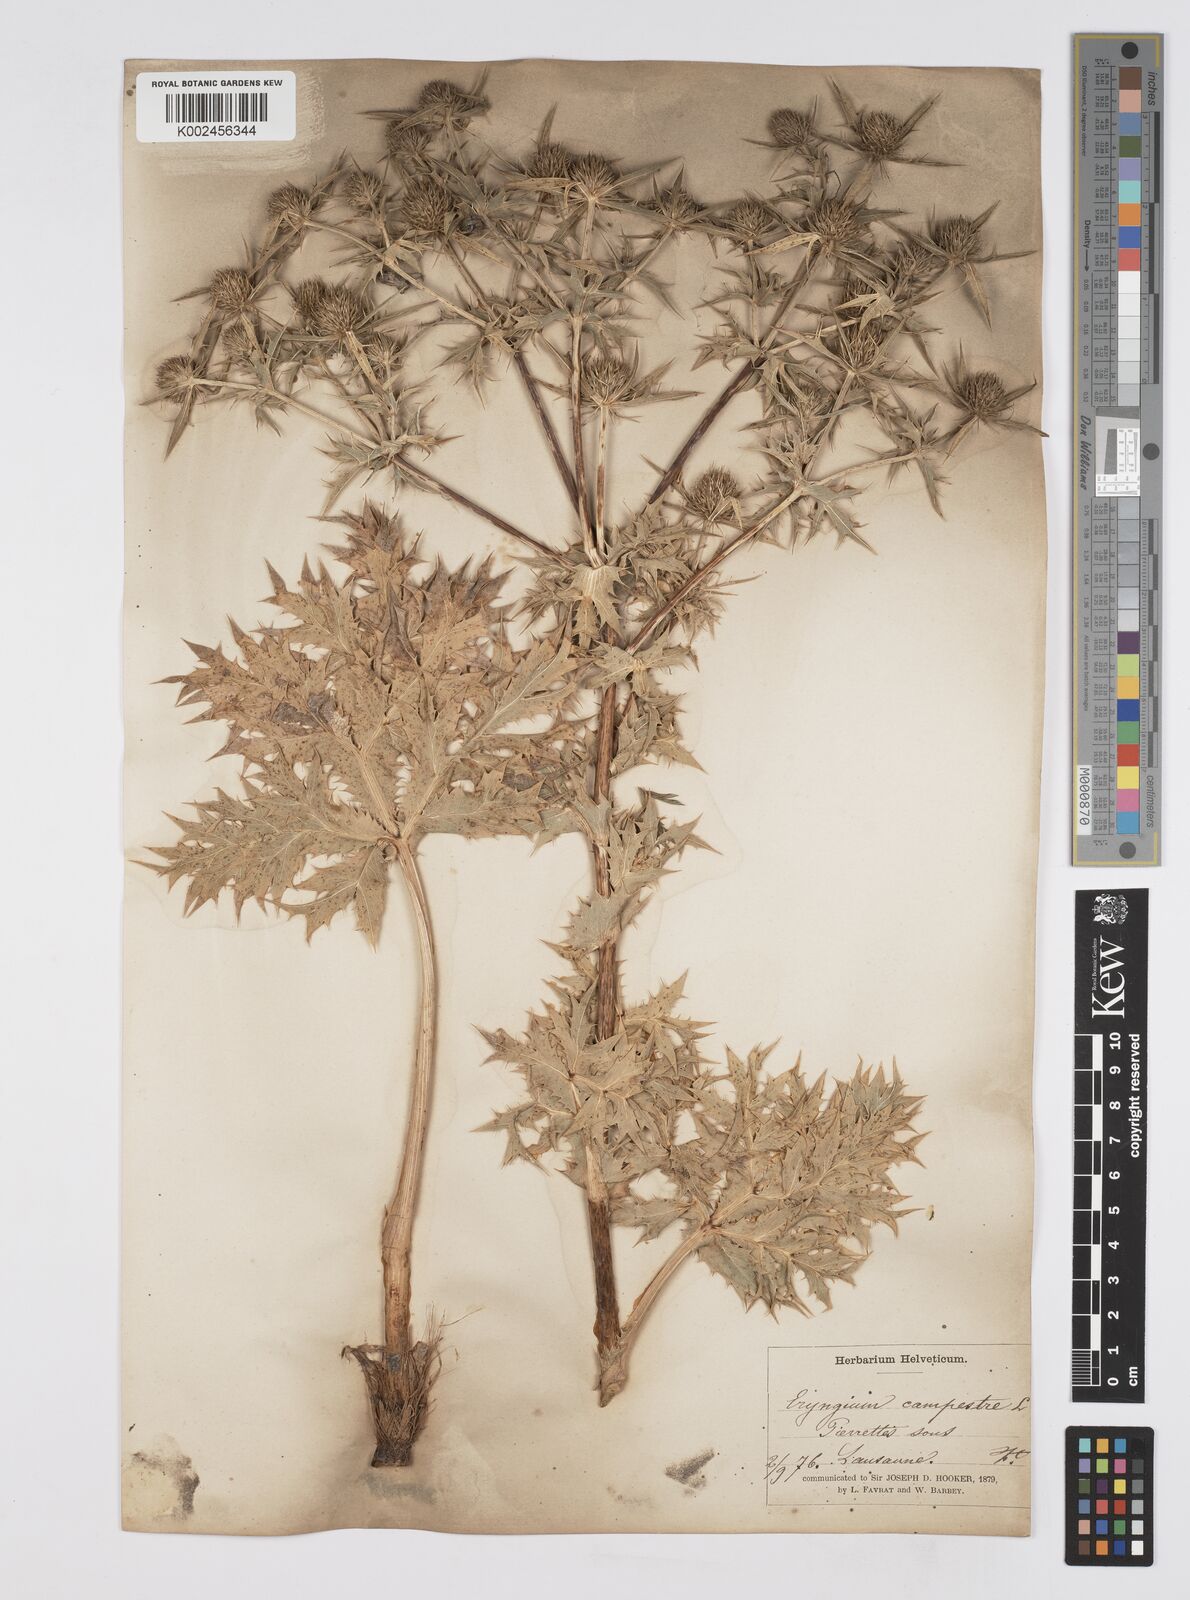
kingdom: Plantae
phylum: Tracheophyta
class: Magnoliopsida
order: Apiales
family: Apiaceae
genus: Eryngium
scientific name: Eryngium campestre
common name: Field eryngo
